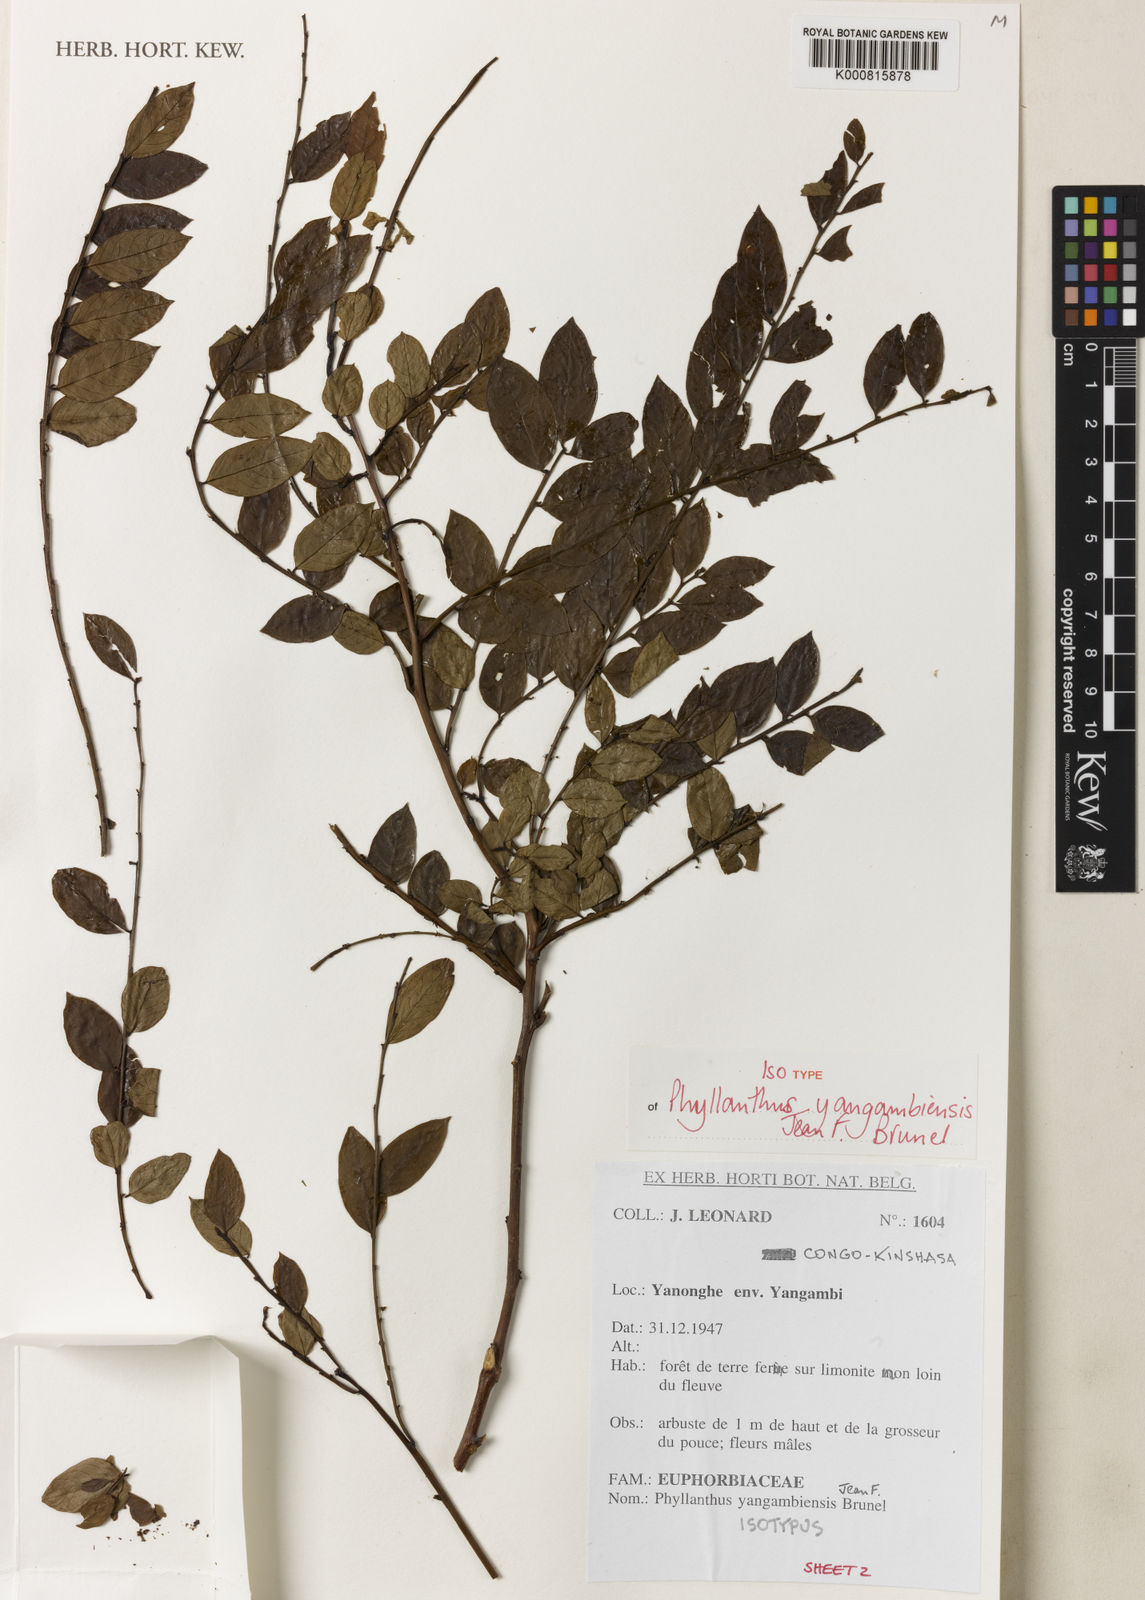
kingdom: Plantae
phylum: Tracheophyta
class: Magnoliopsida
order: Malpighiales
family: Phyllanthaceae
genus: Phyllanthus
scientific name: Phyllanthus yangambiensis
